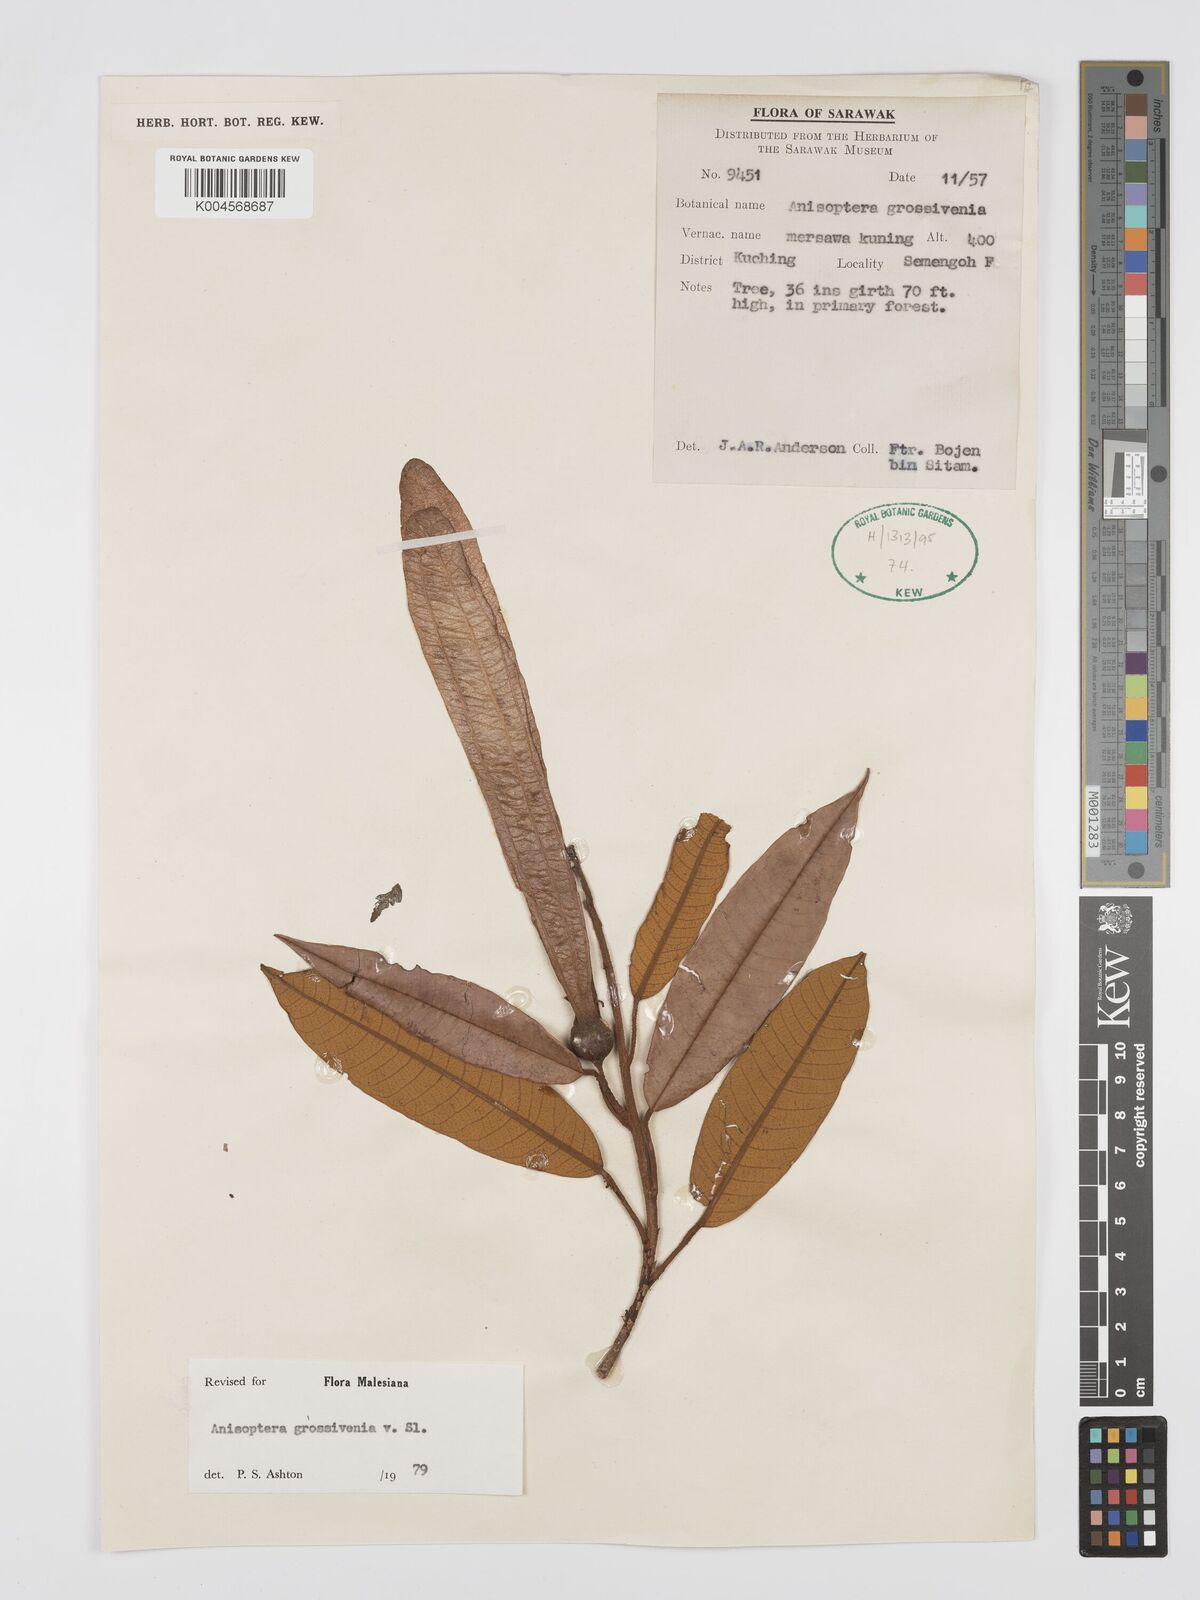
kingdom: Plantae
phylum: Tracheophyta
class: Magnoliopsida
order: Malvales
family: Dipterocarpaceae
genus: Anisoptera
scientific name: Anisoptera grossivenia
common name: Krabak
